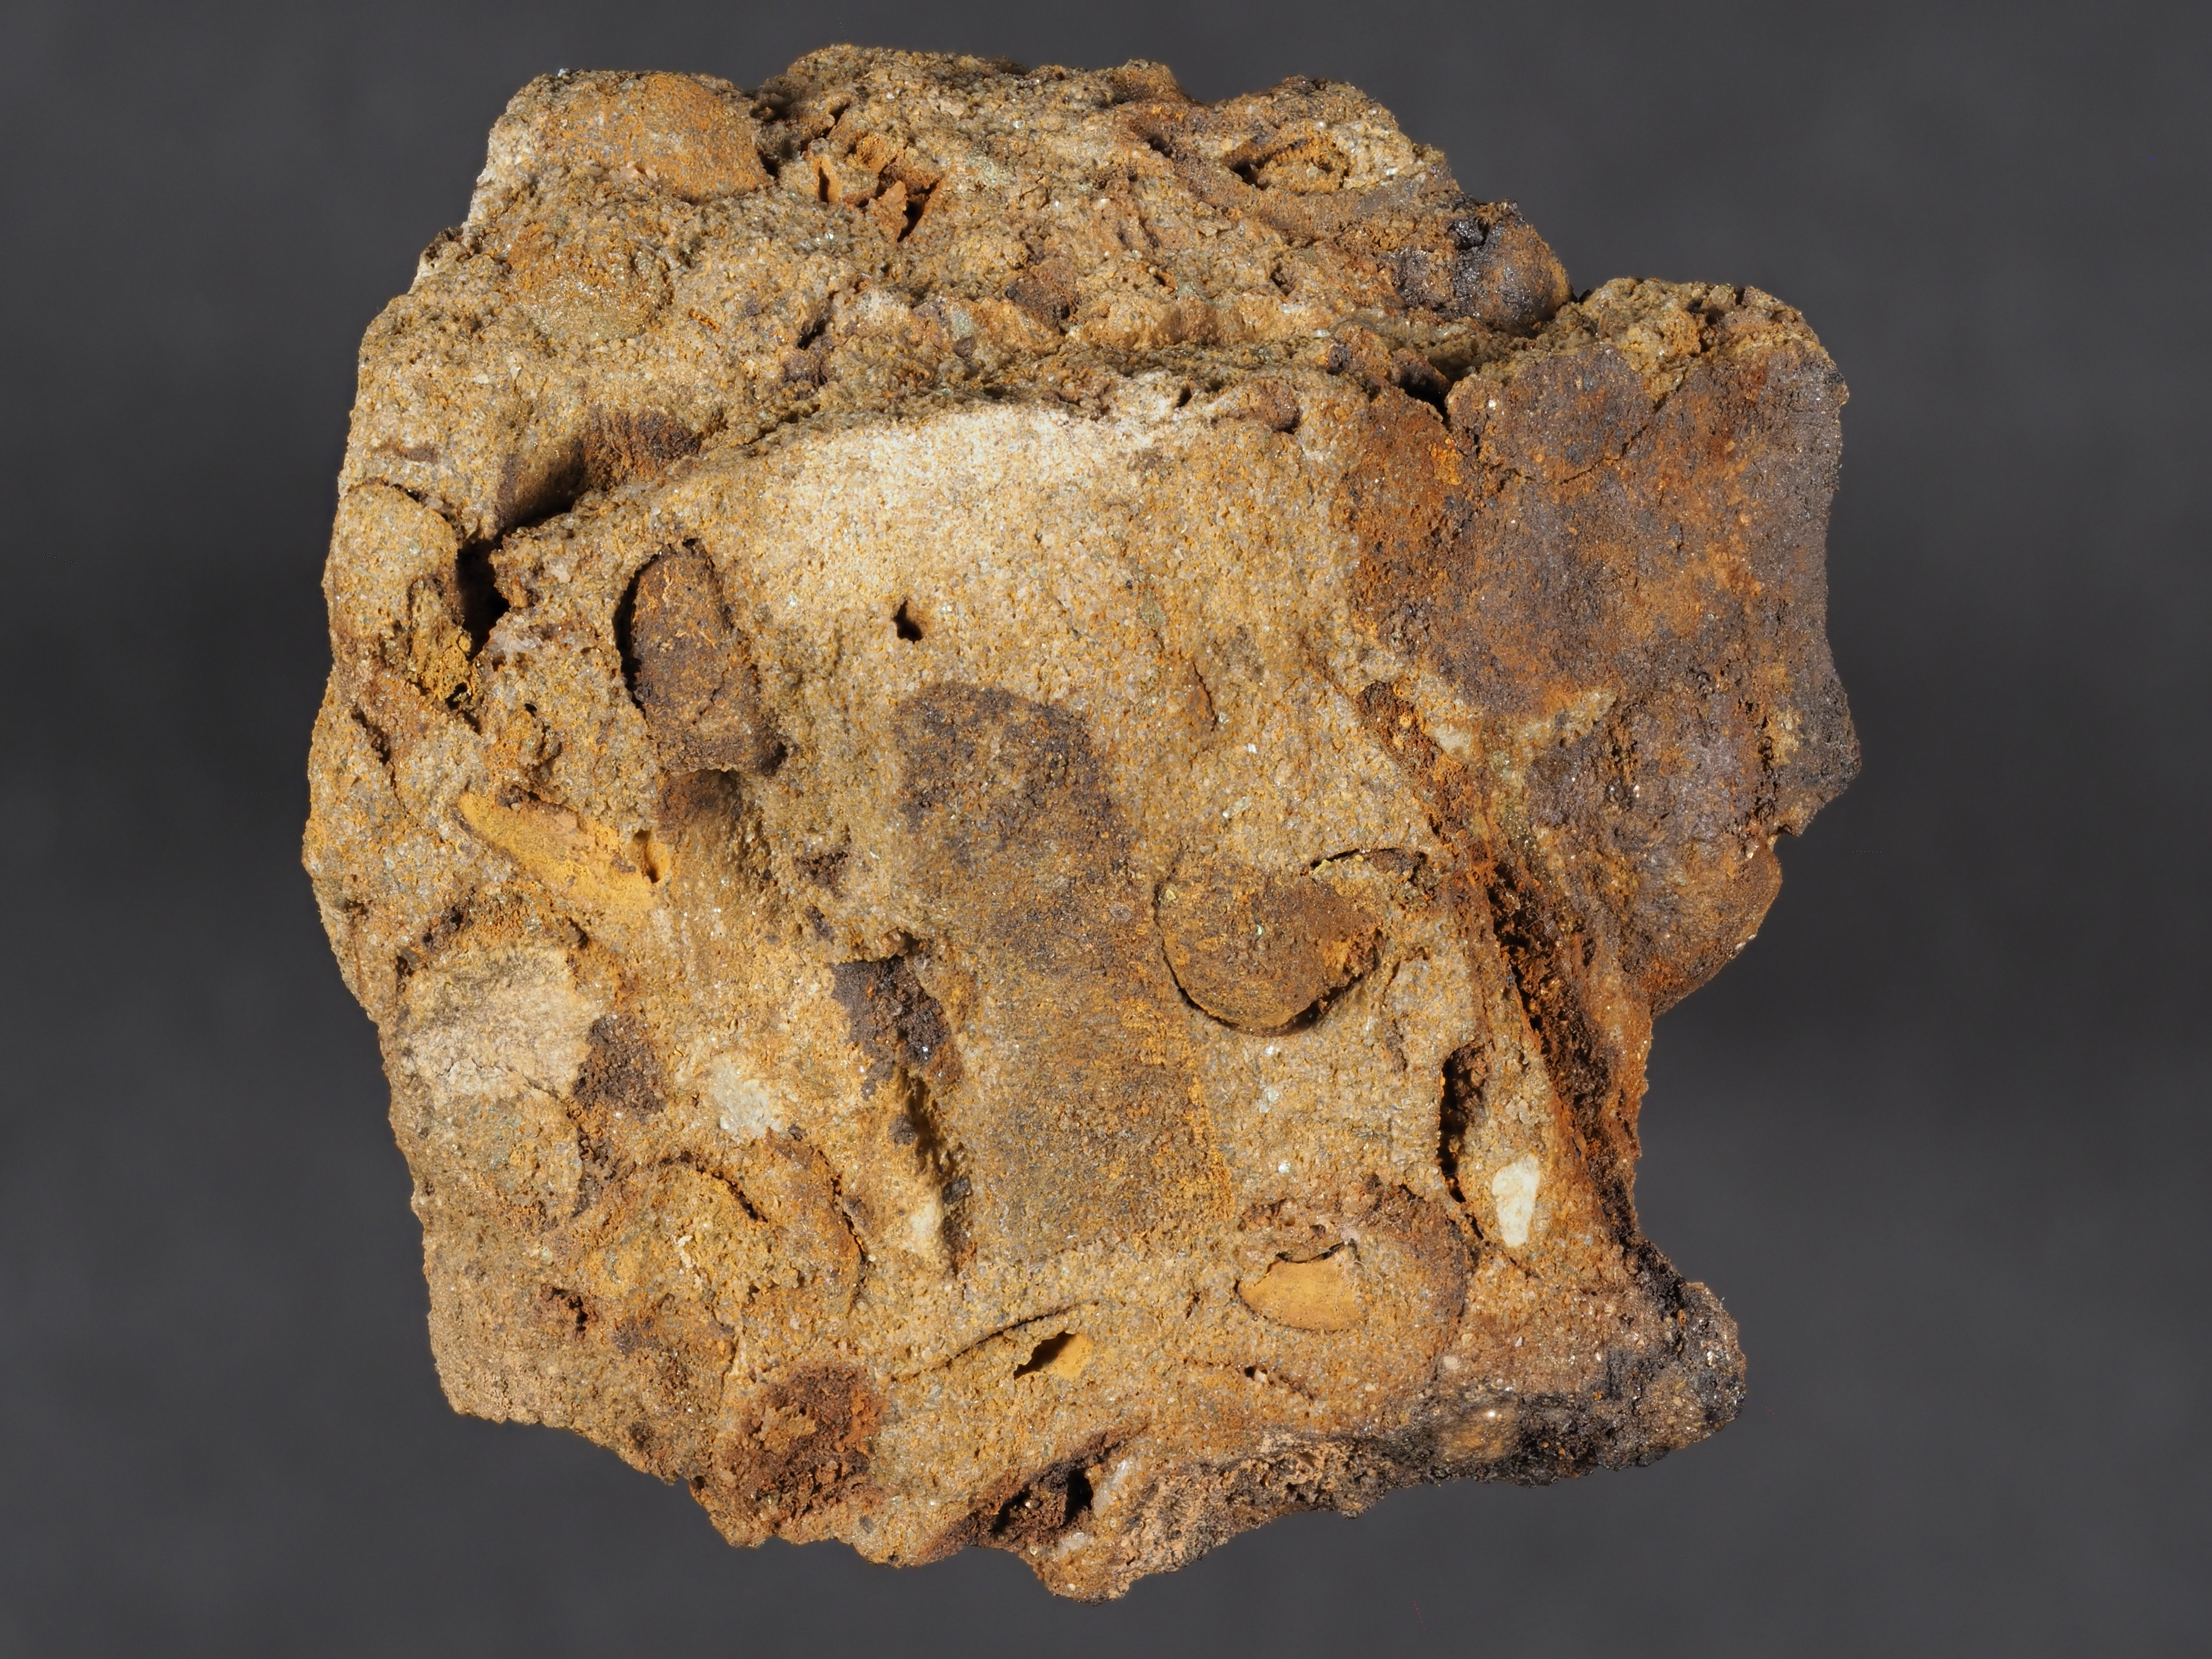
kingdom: Animalia
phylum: Mollusca
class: Gastropoda
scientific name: Gastropoda
